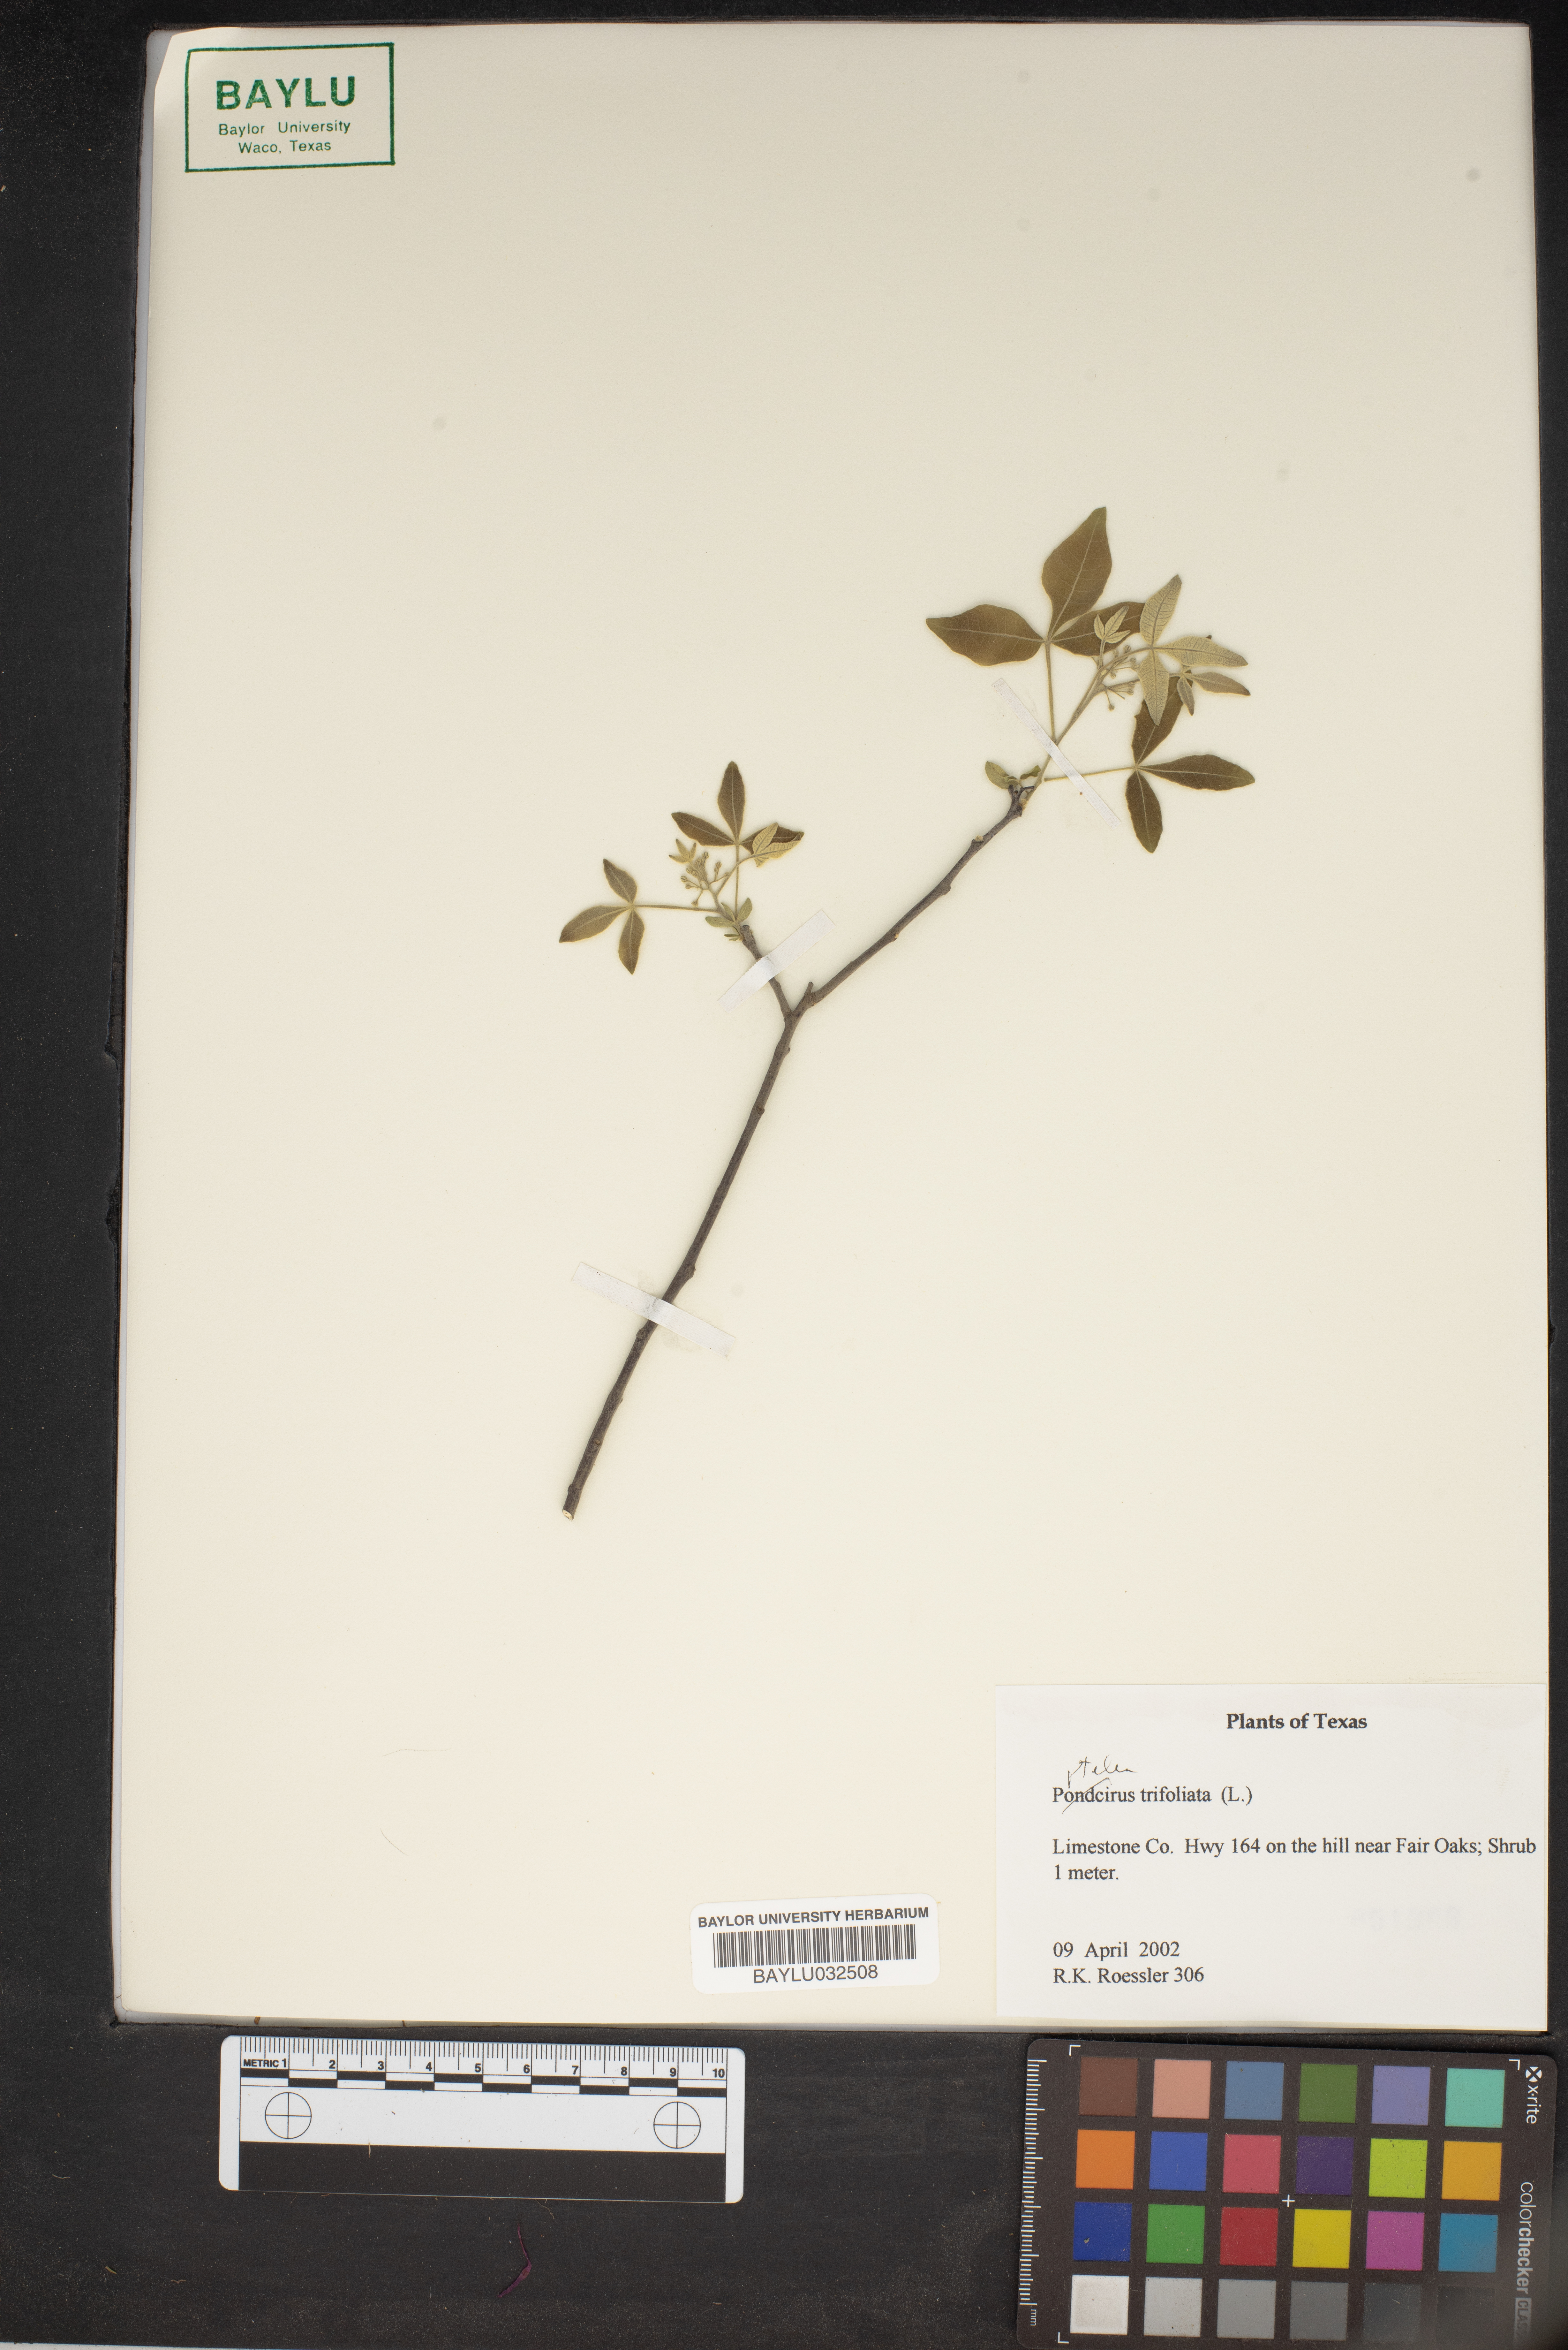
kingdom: Plantae
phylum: Tracheophyta
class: Magnoliopsida
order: Sapindales
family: Rutaceae
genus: Ptelea
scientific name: Ptelea trifoliata
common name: Common hop-tree
